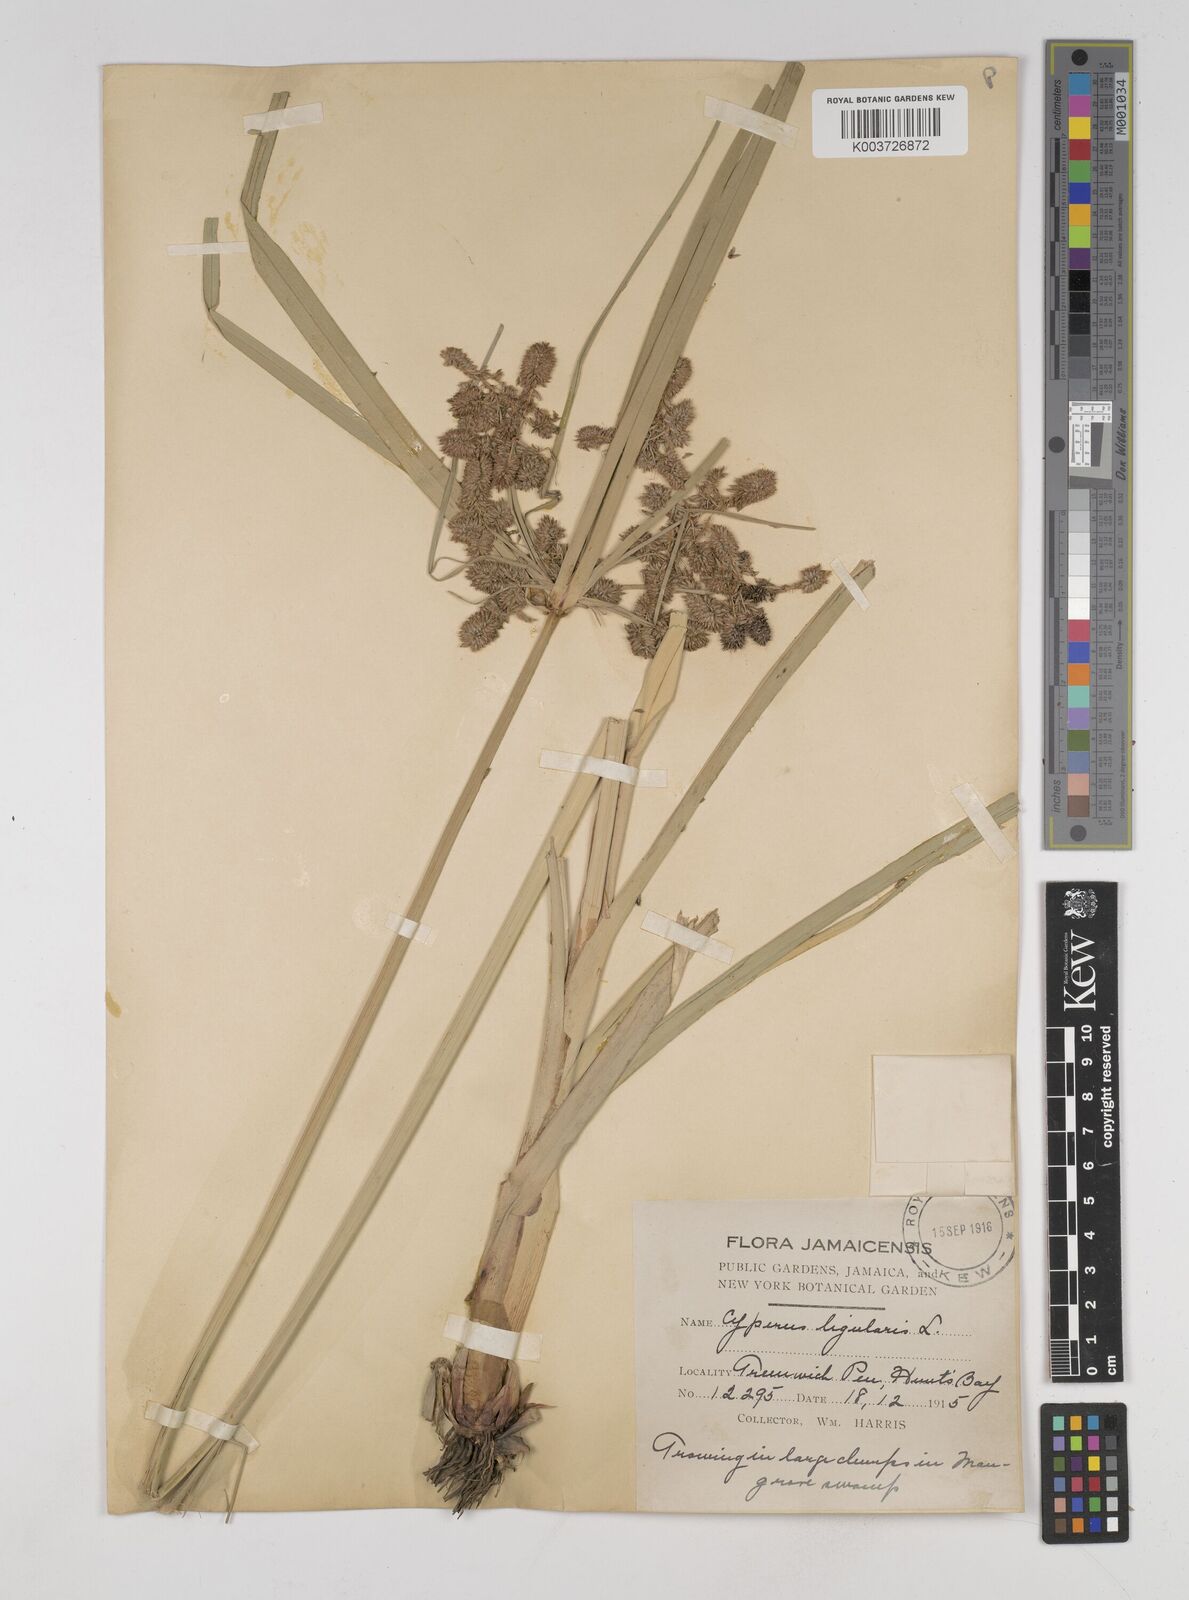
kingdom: Plantae
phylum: Tracheophyta
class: Liliopsida
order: Poales
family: Cyperaceae
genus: Cyperus
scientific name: Cyperus ligularis
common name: Swamp flat sedge
